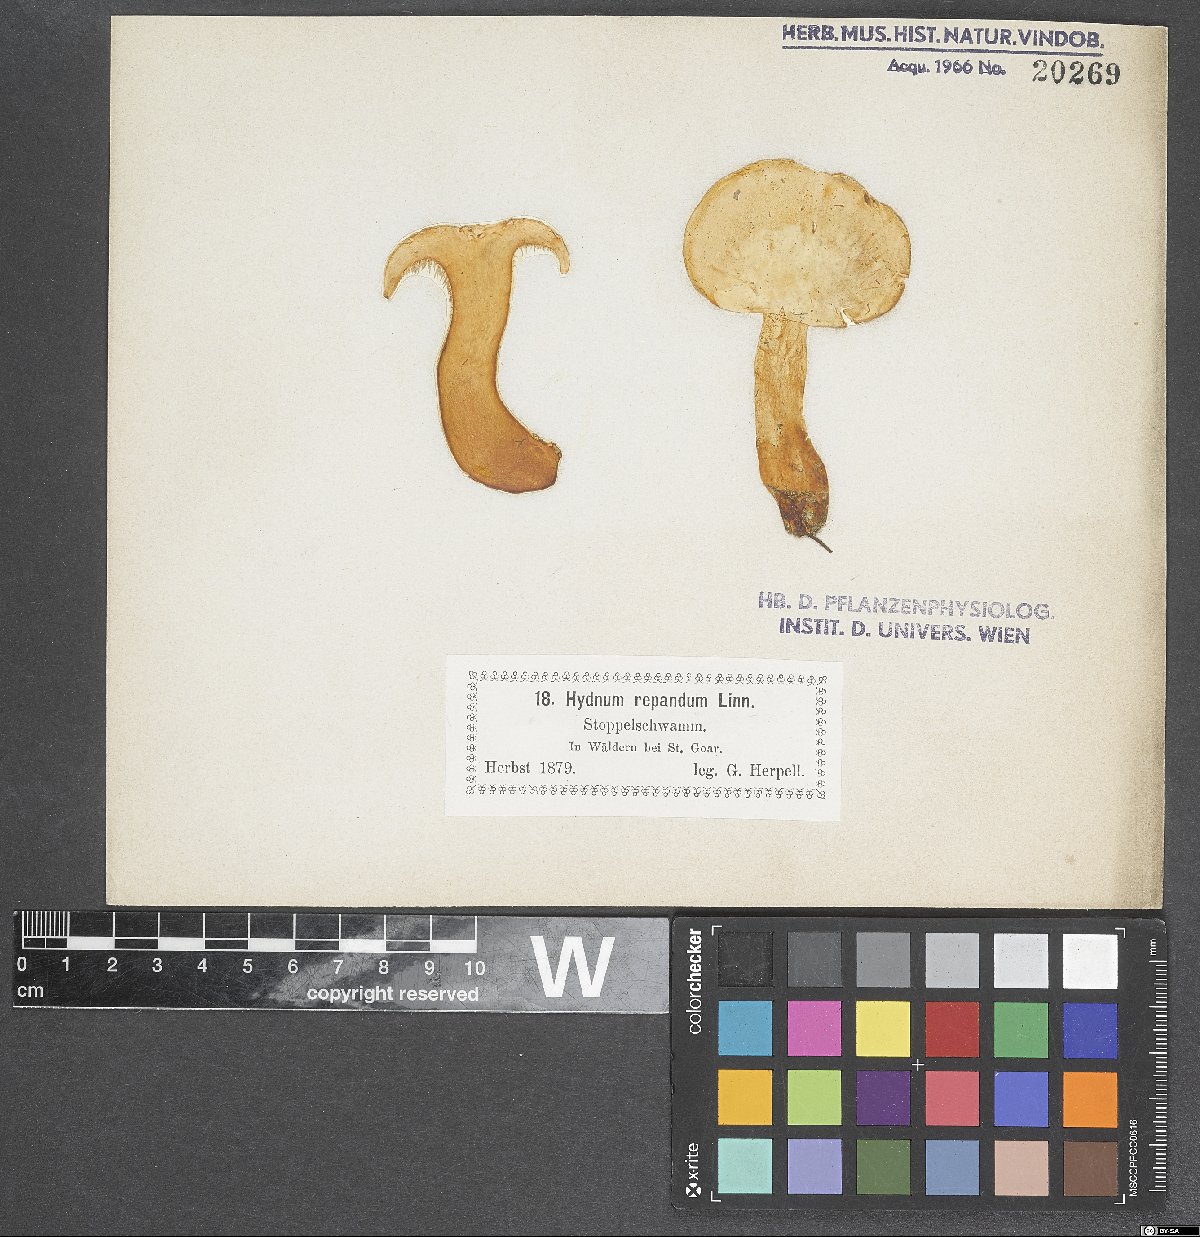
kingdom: Fungi
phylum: Basidiomycota
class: Agaricomycetes
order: Cantharellales
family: Hydnaceae
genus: Hydnum
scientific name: Hydnum repandum
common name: Wood hedgehog
